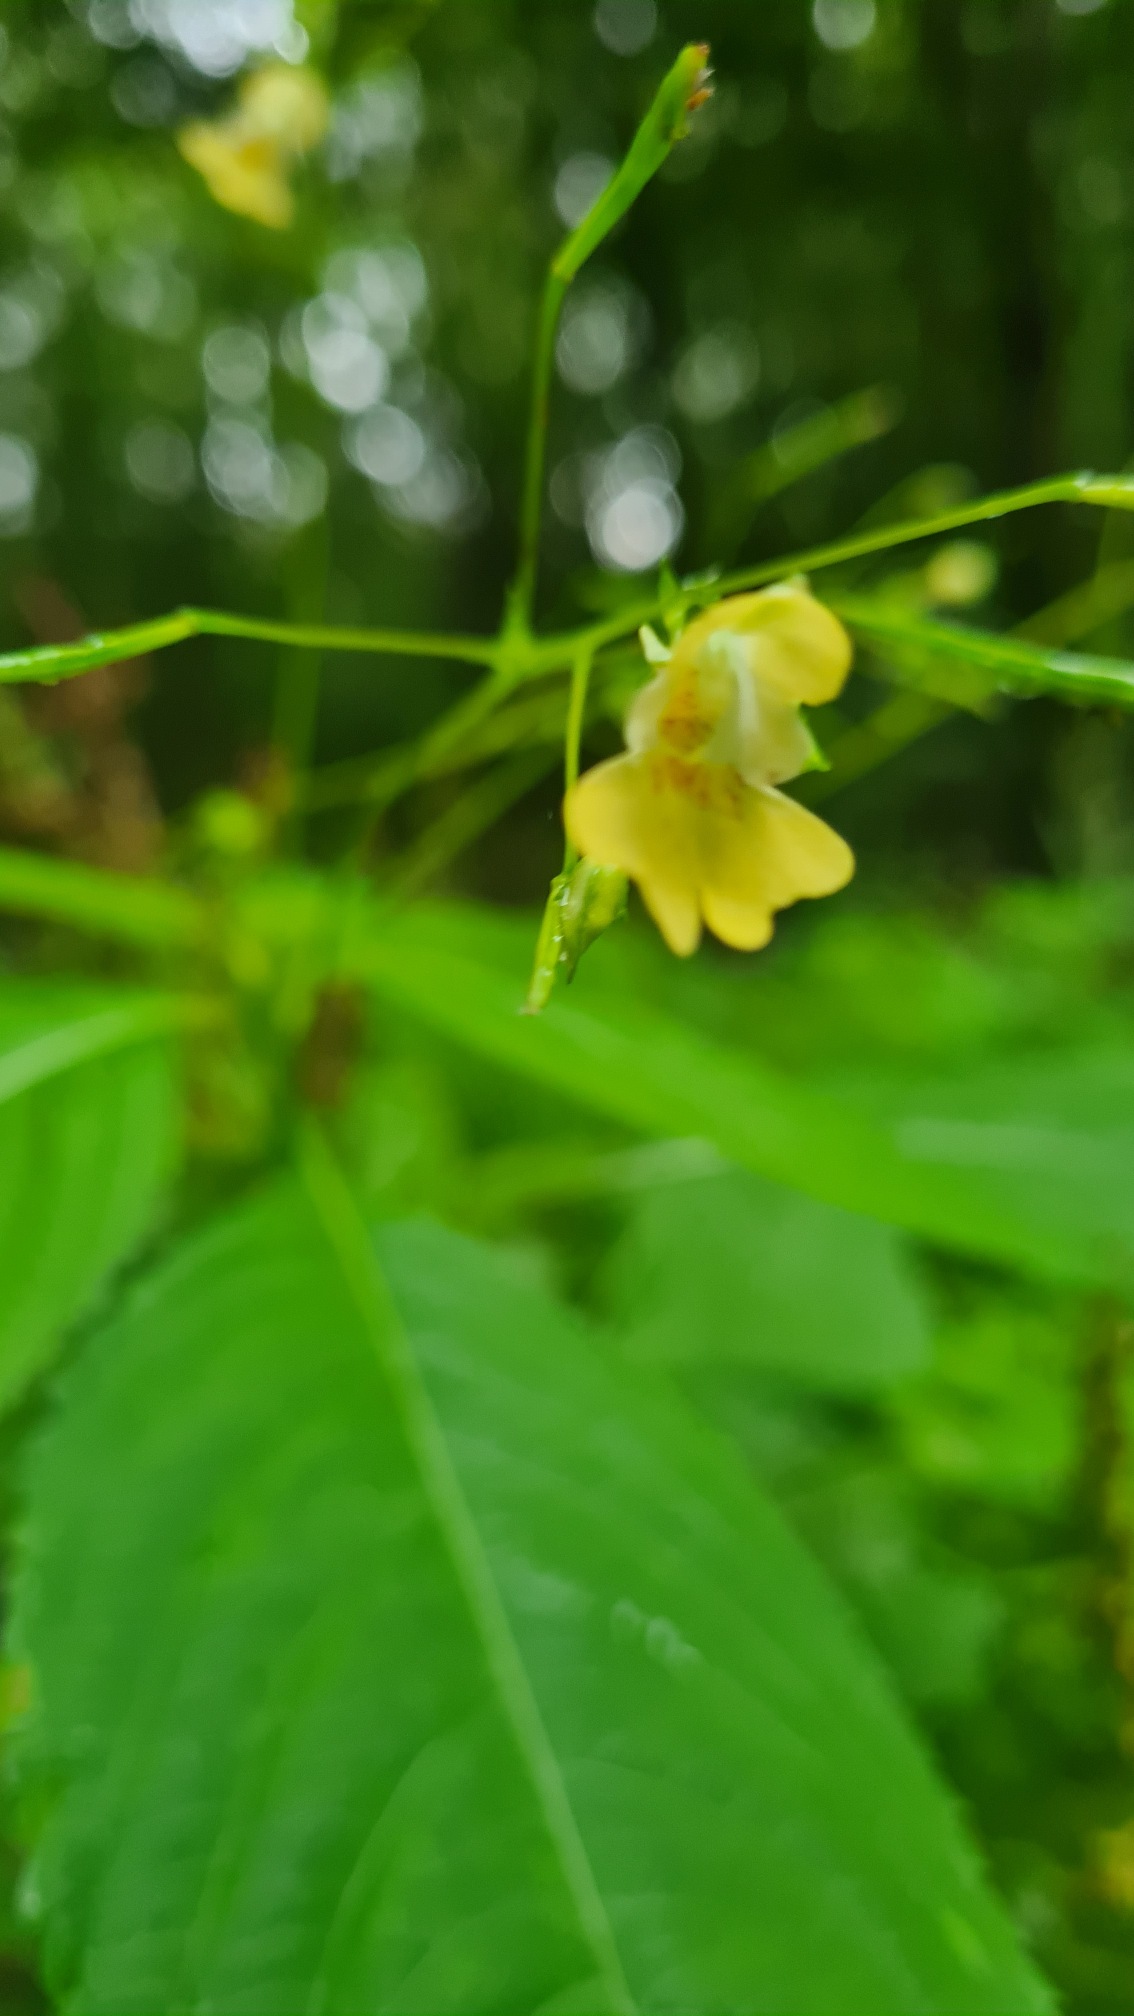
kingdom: Plantae
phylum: Tracheophyta
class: Magnoliopsida
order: Ericales
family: Balsaminaceae
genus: Impatiens
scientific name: Impatiens parviflora
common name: Småblomstret balsamin
